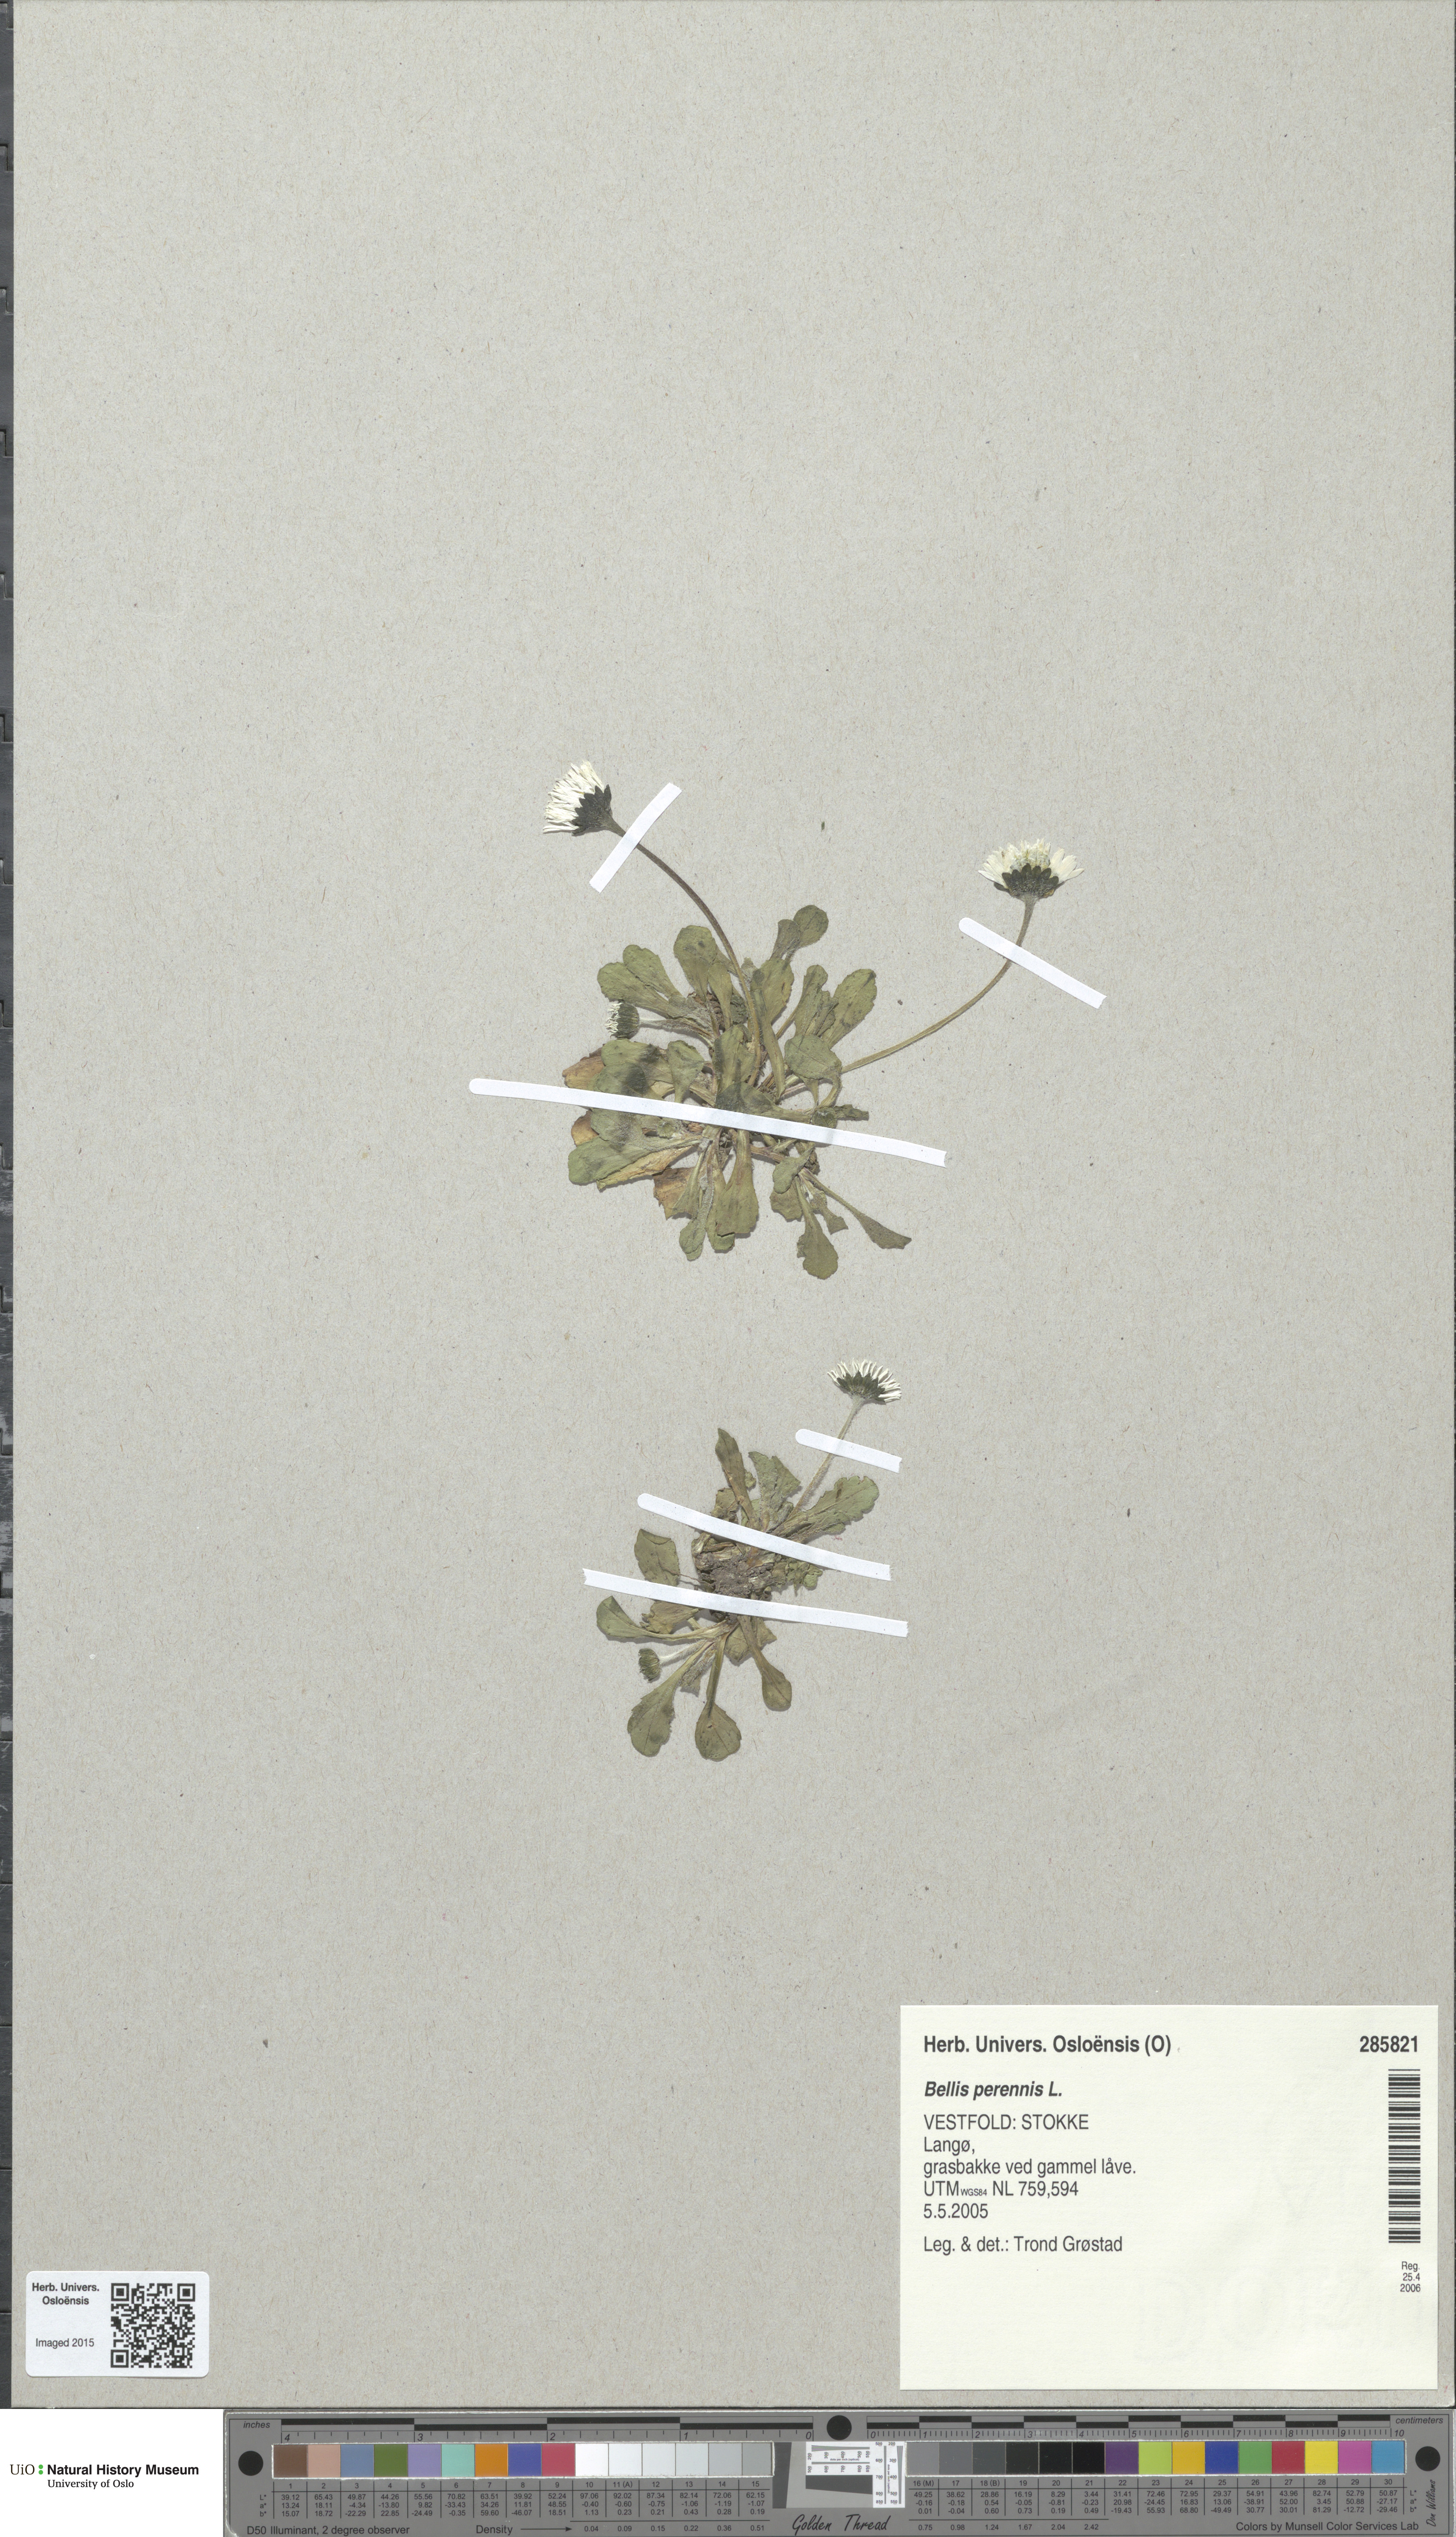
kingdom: Plantae
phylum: Tracheophyta
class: Magnoliopsida
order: Asterales
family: Asteraceae
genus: Bellis
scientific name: Bellis perennis
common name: Lawndaisy
